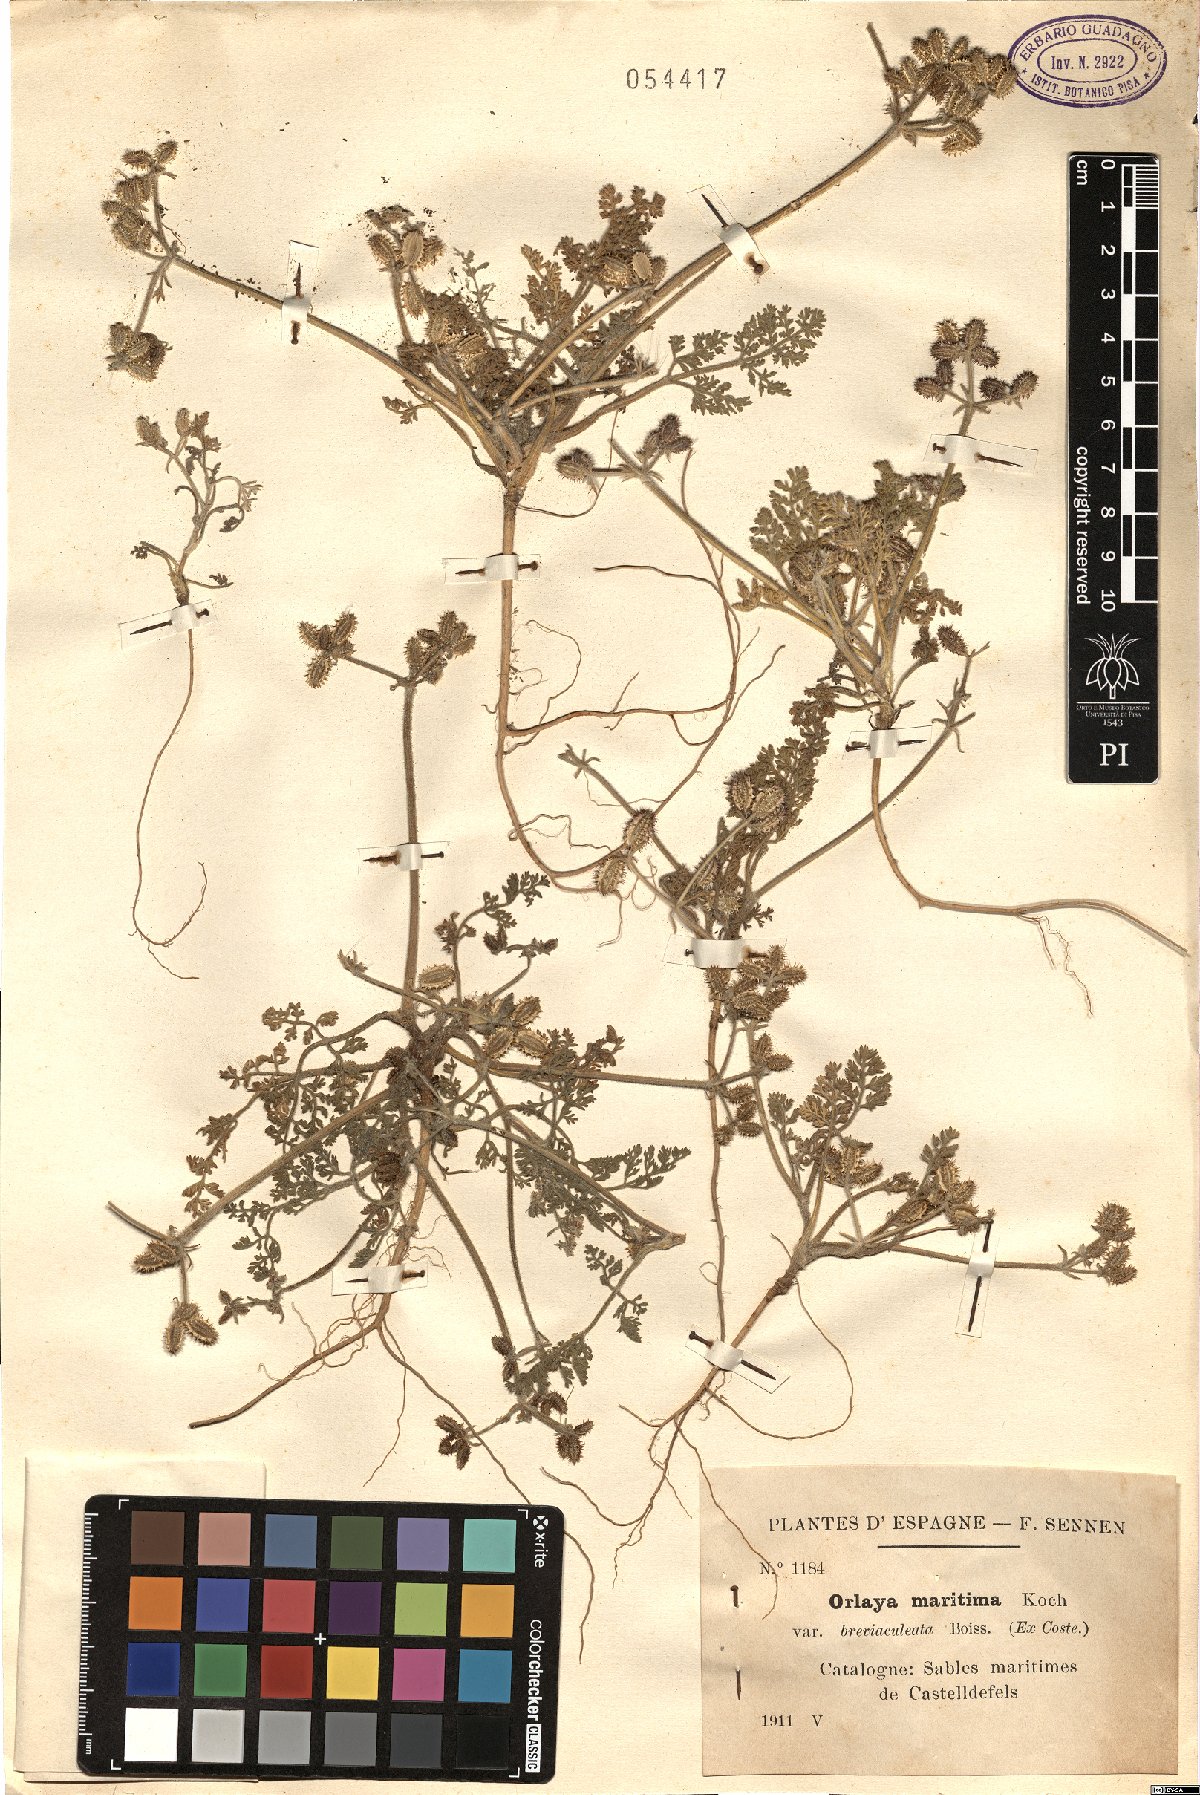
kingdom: Plantae
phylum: Tracheophyta
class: Magnoliopsida
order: Apiales
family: Apiaceae
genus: Daucus
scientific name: Daucus pumilus
